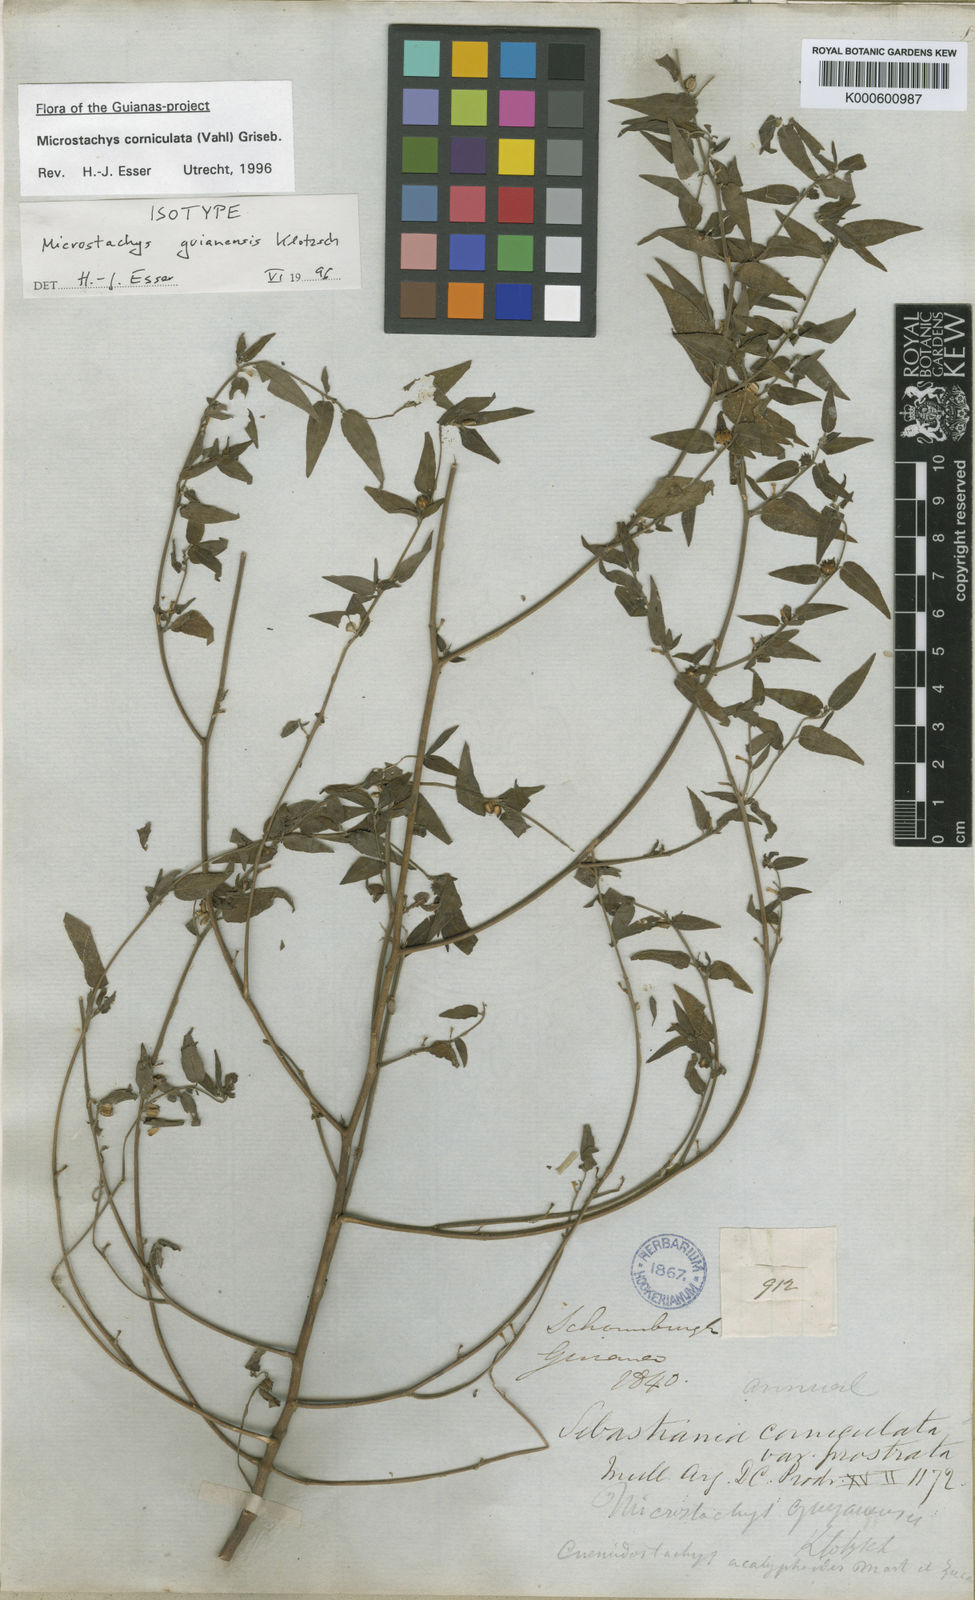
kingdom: Plantae
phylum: Tracheophyta
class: Magnoliopsida
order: Malpighiales
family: Euphorbiaceae
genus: Sebastiania
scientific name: Sebastiania
